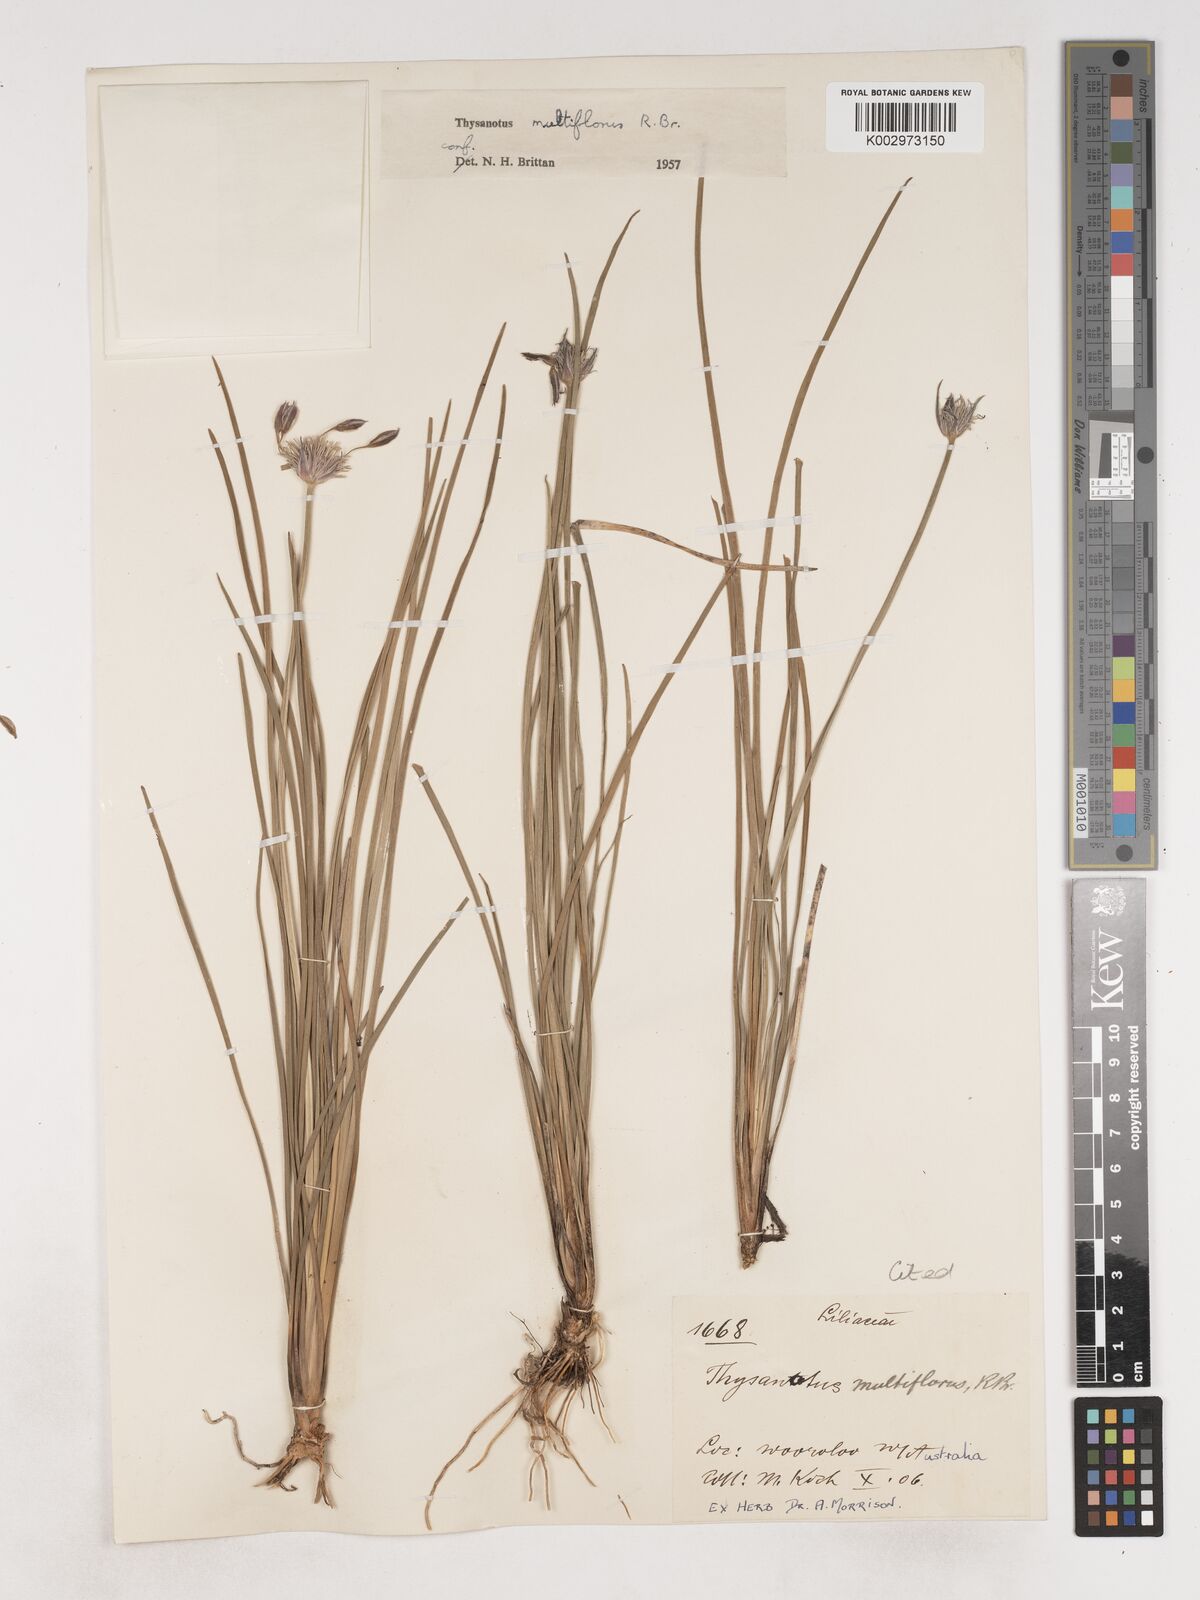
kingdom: Plantae
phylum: Tracheophyta
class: Liliopsida
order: Asparagales
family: Asparagaceae
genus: Thysanotus
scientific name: Thysanotus multiflorus
